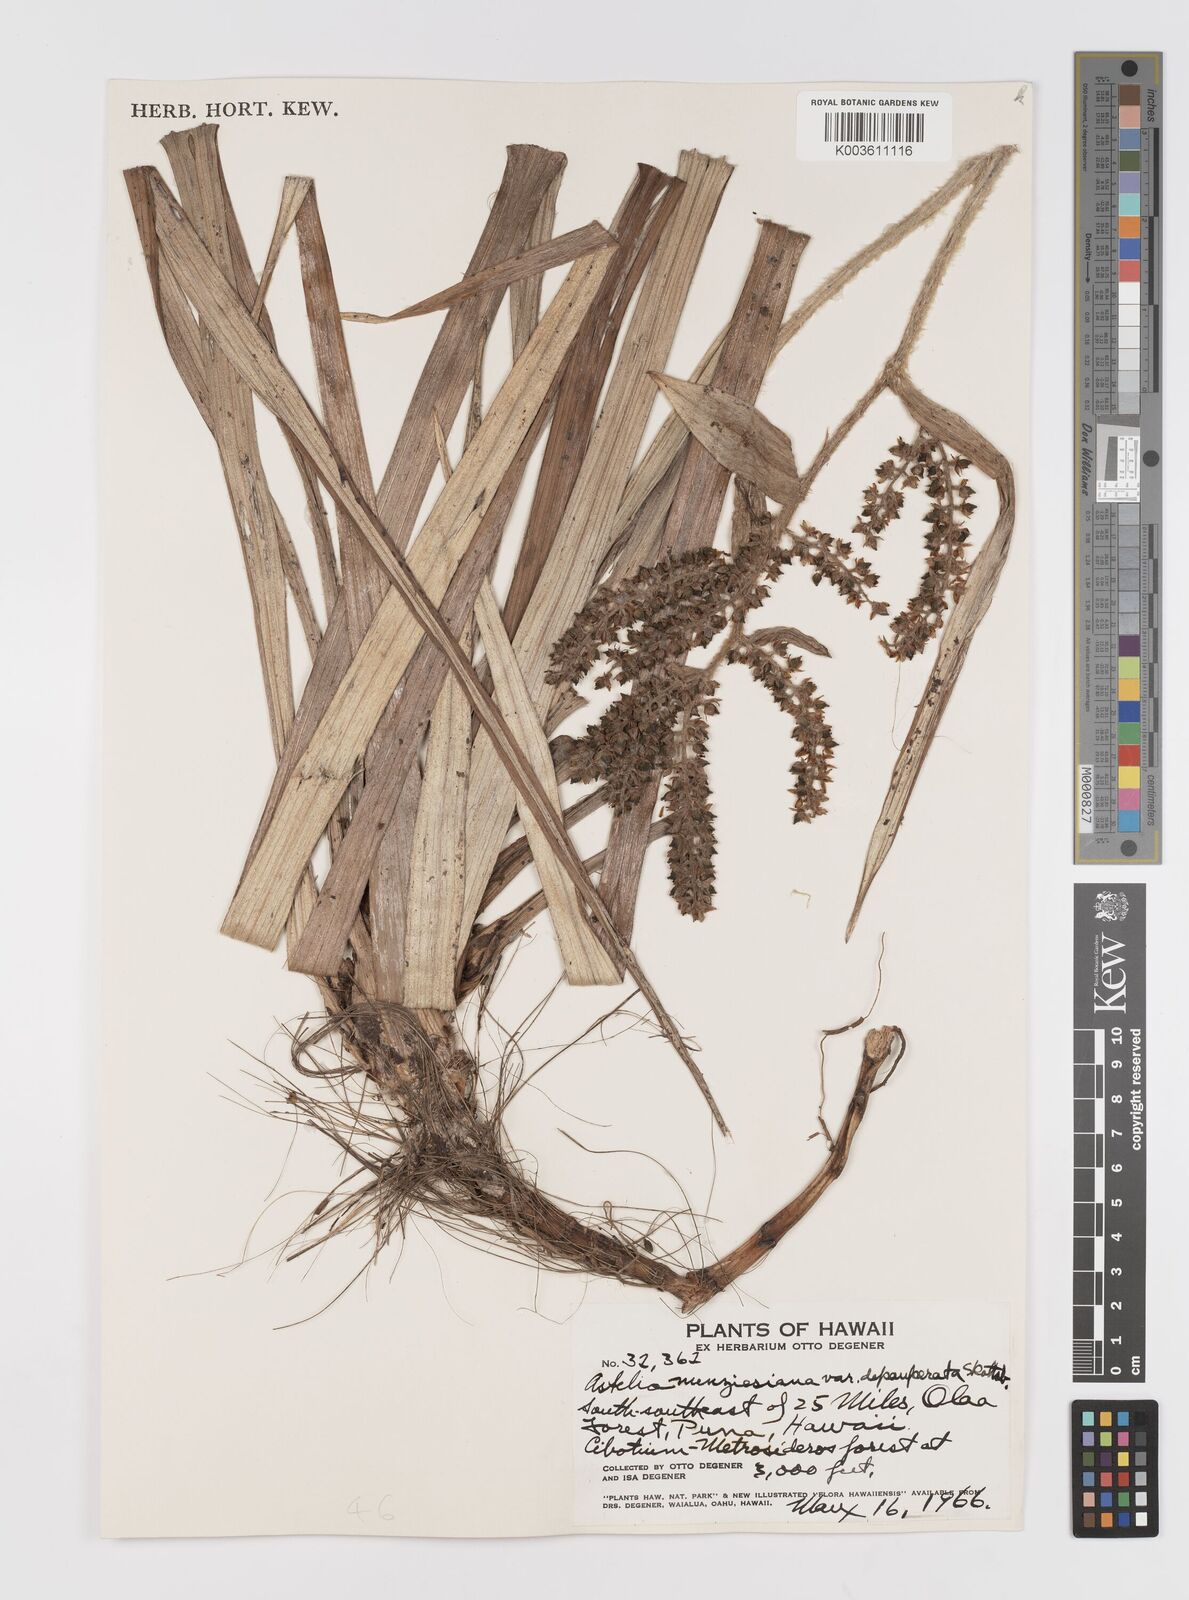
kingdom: Plantae
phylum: Tracheophyta
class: Liliopsida
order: Asparagales
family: Asteliaceae
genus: Astelia
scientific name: Astelia menziesiana
